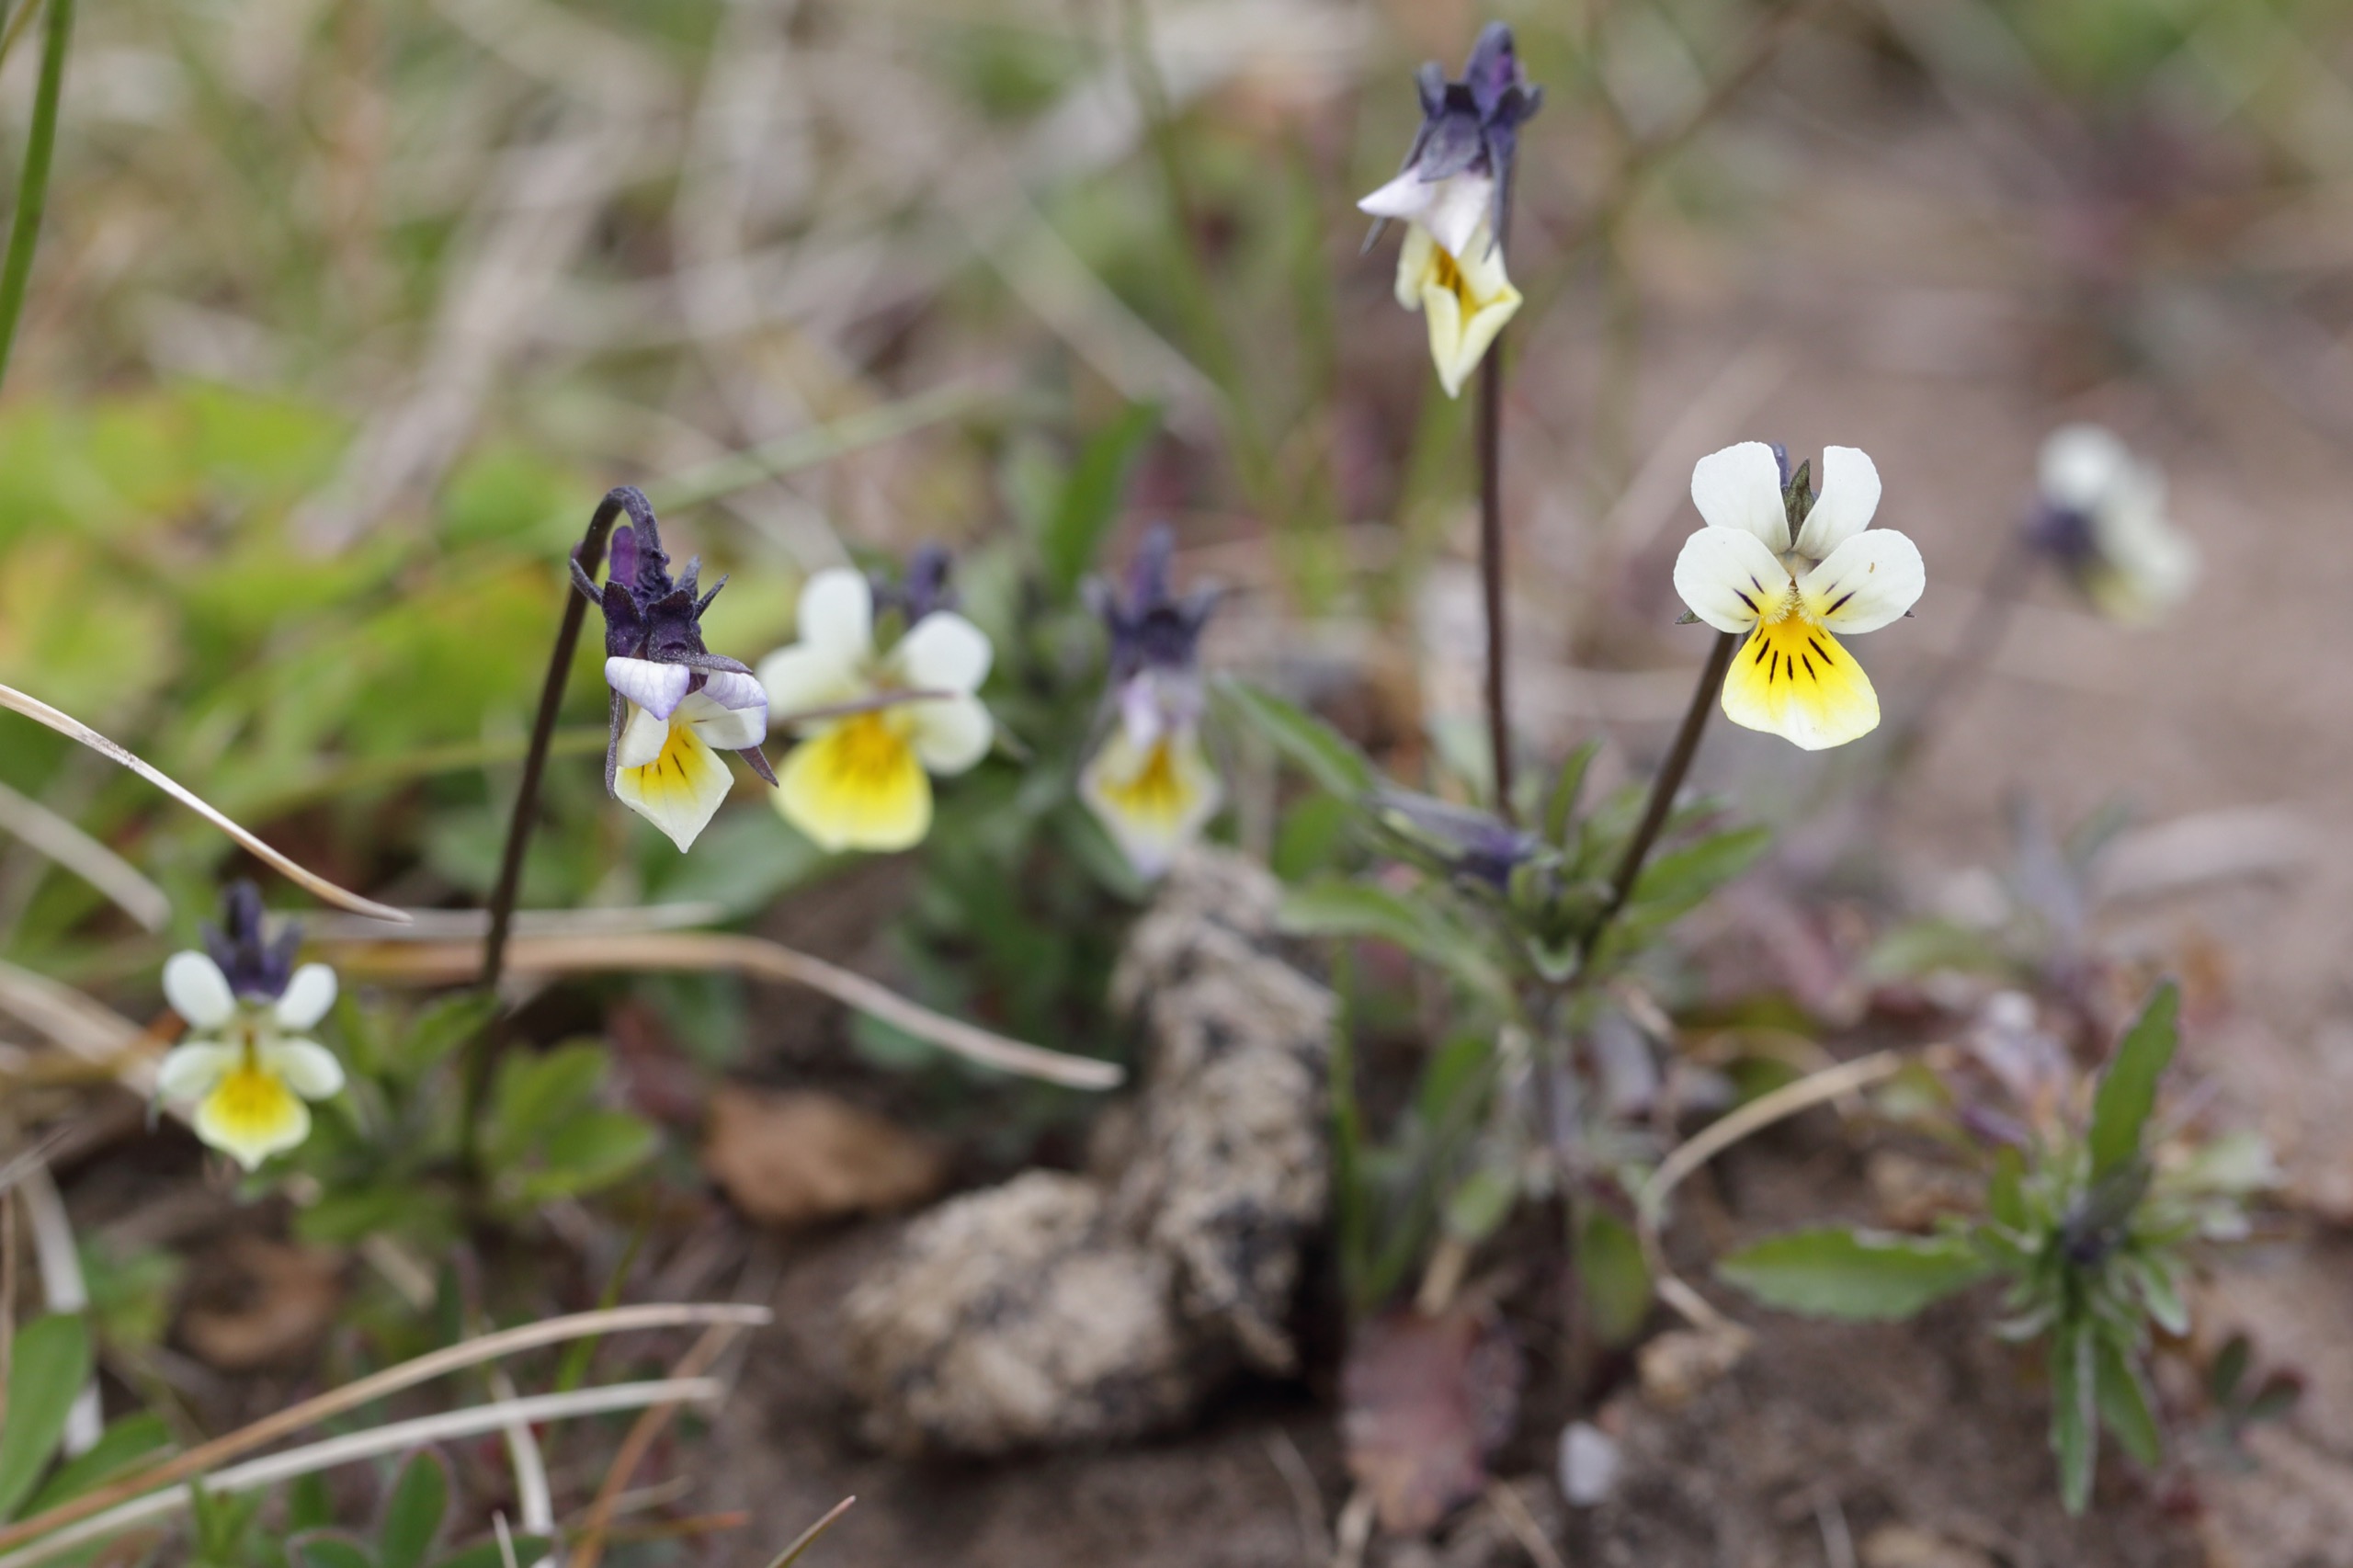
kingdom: Plantae
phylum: Tracheophyta
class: Magnoliopsida
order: Malpighiales
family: Violaceae
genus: Viola
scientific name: Viola arvensis
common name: Ager-stedmoderblomst
